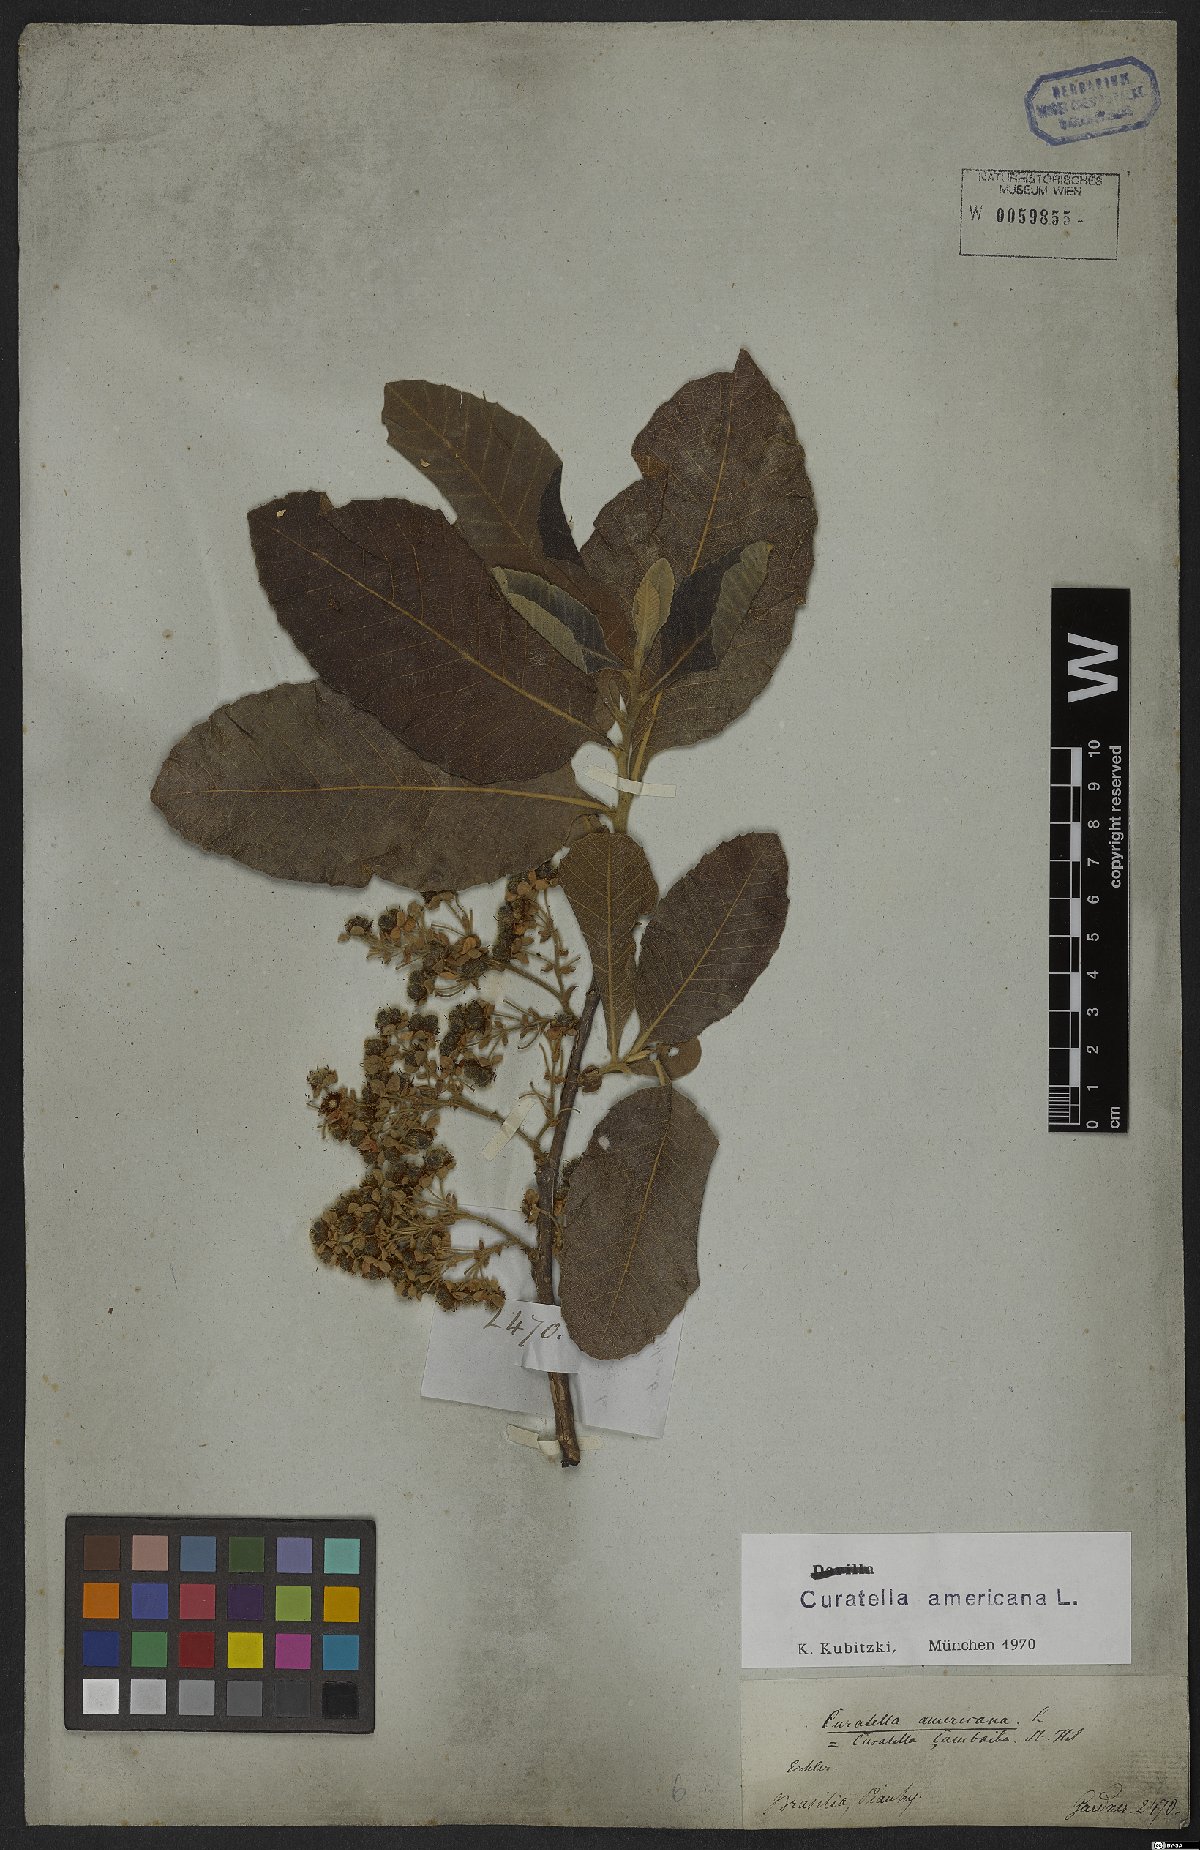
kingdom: Plantae
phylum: Tracheophyta
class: Magnoliopsida
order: Dilleniales
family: Dilleniaceae
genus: Curatella
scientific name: Curatella americana
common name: Sandpaper tree
